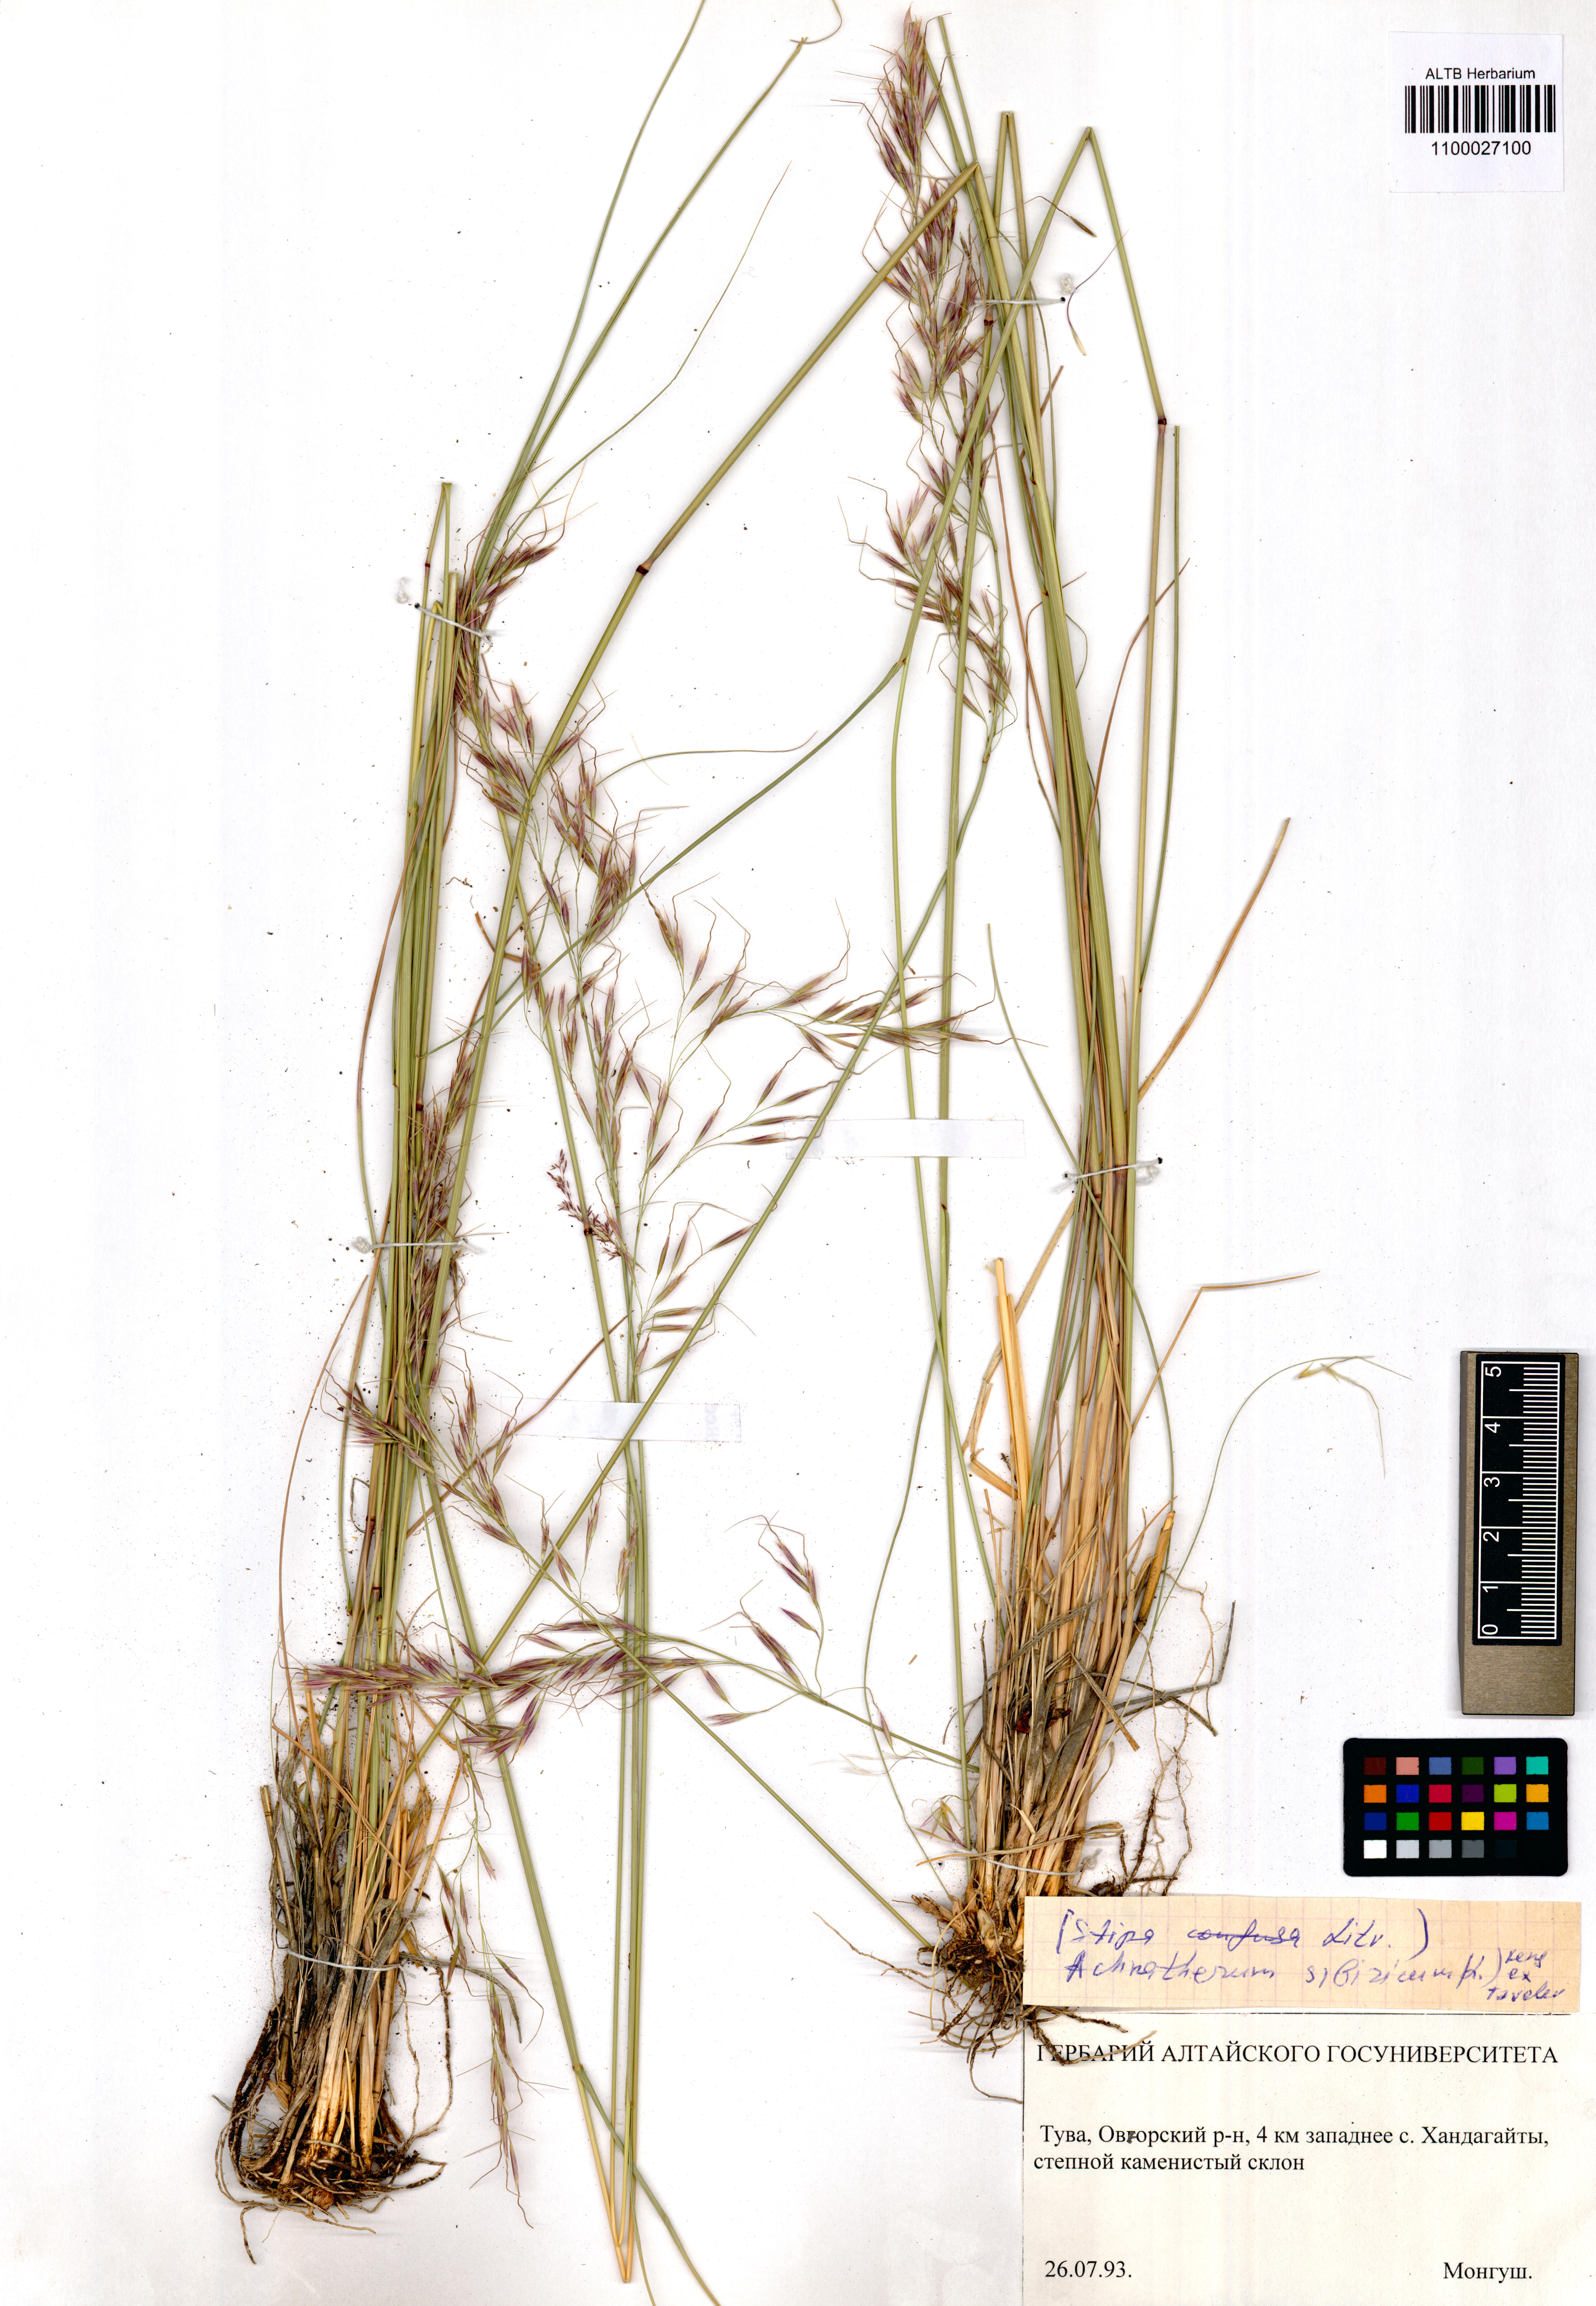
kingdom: Plantae
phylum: Tracheophyta
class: Liliopsida
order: Poales
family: Poaceae
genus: Achnatherum
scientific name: Achnatherum sibiricum
